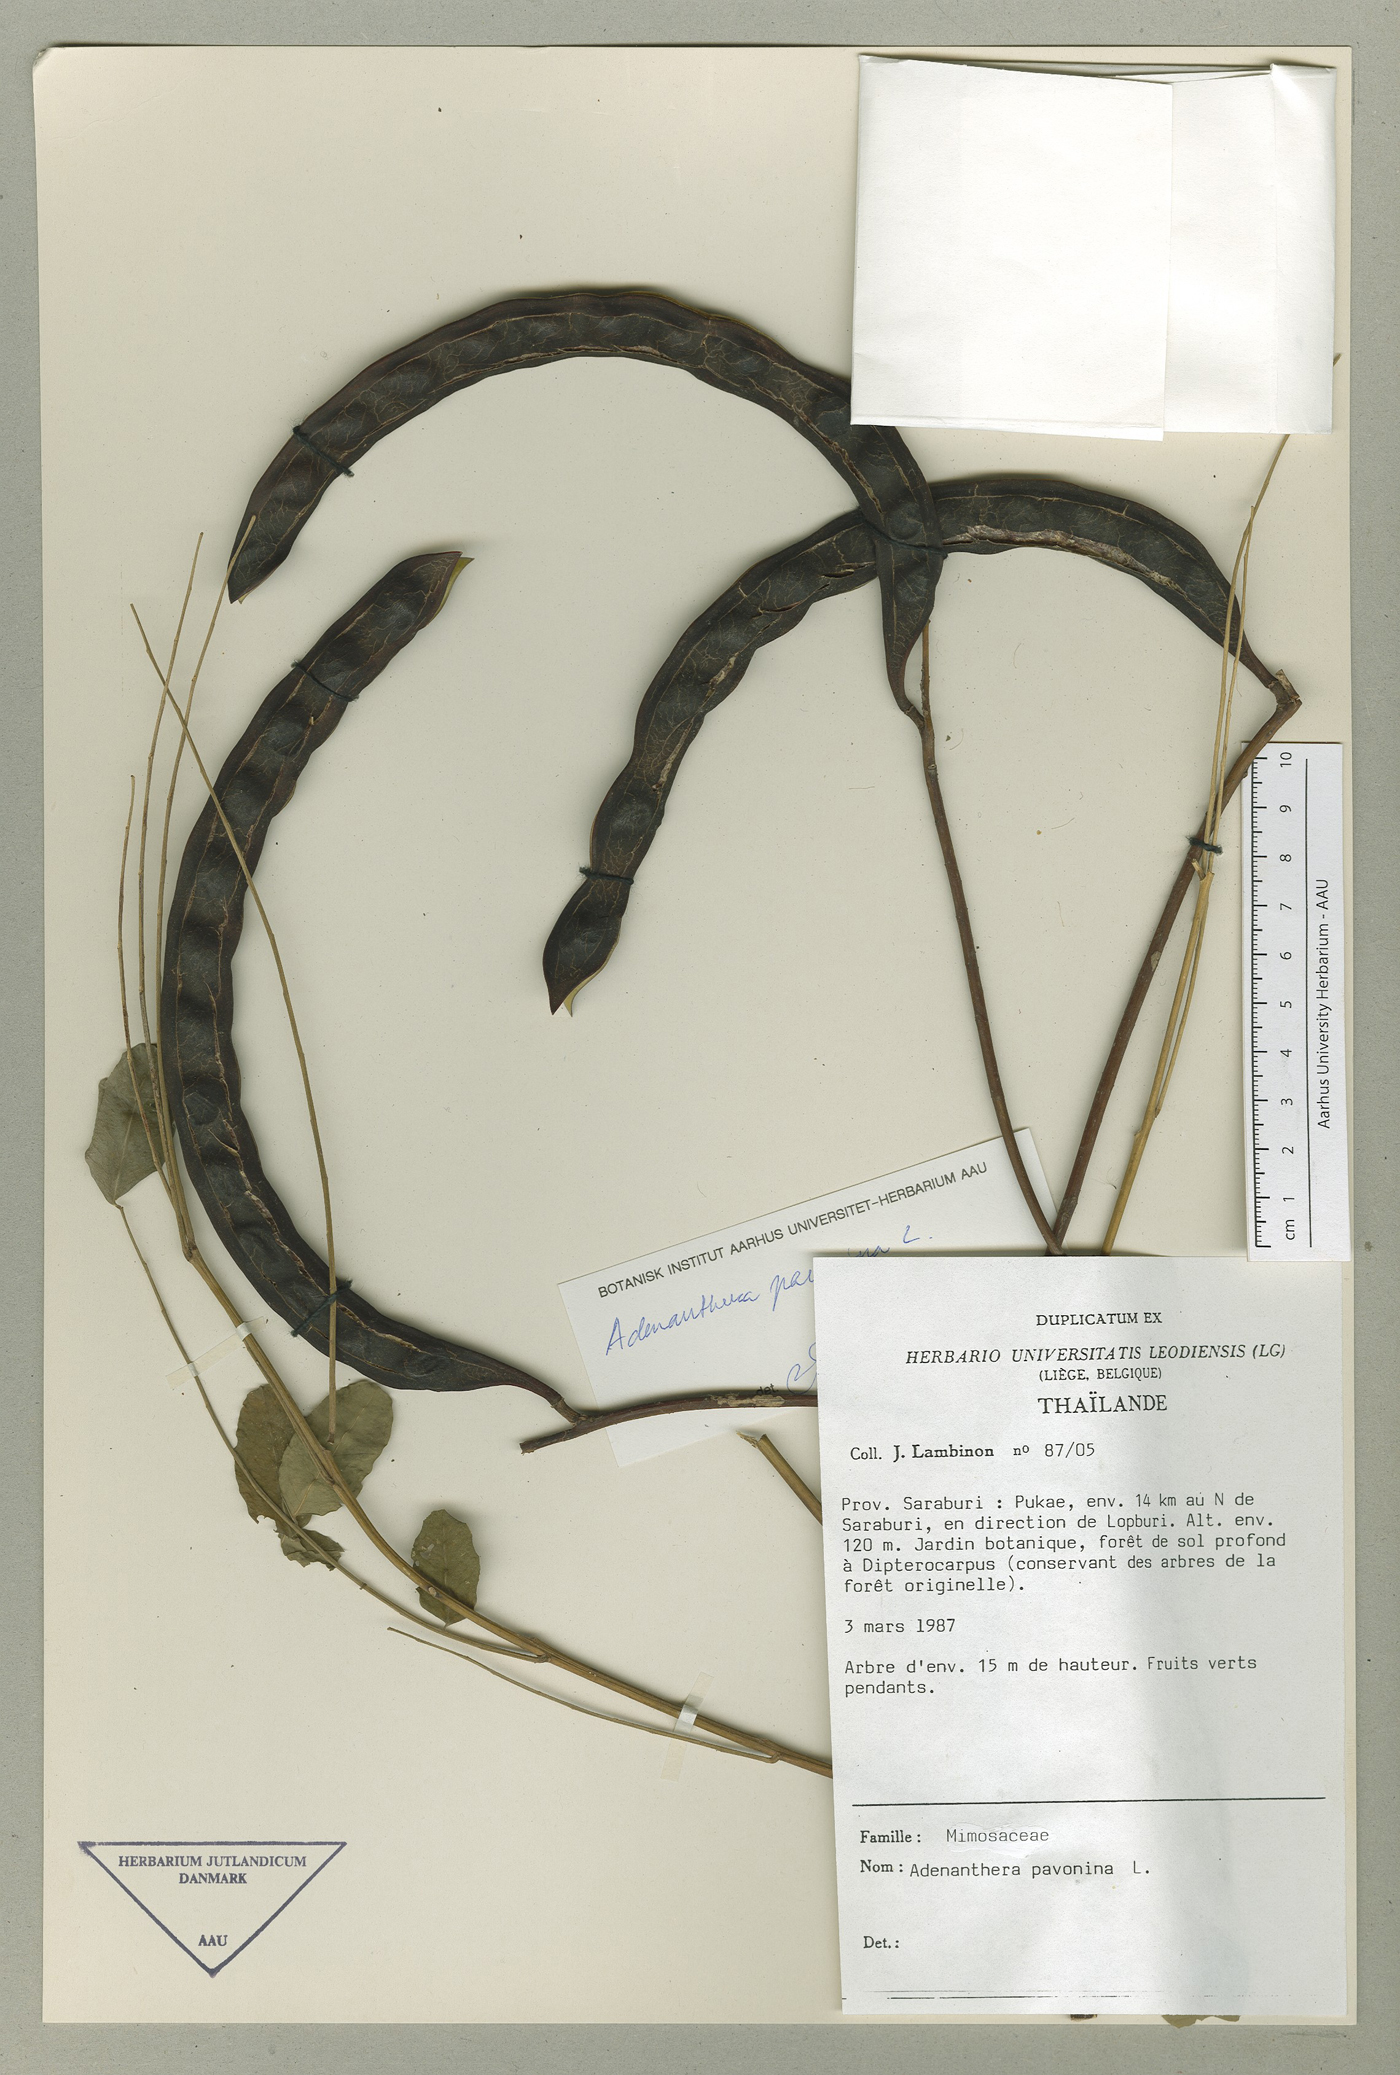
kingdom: Plantae
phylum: Tracheophyta
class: Magnoliopsida
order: Fabales
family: Fabaceae
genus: Adenanthera
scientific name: Adenanthera pavonina
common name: Red beadtree
